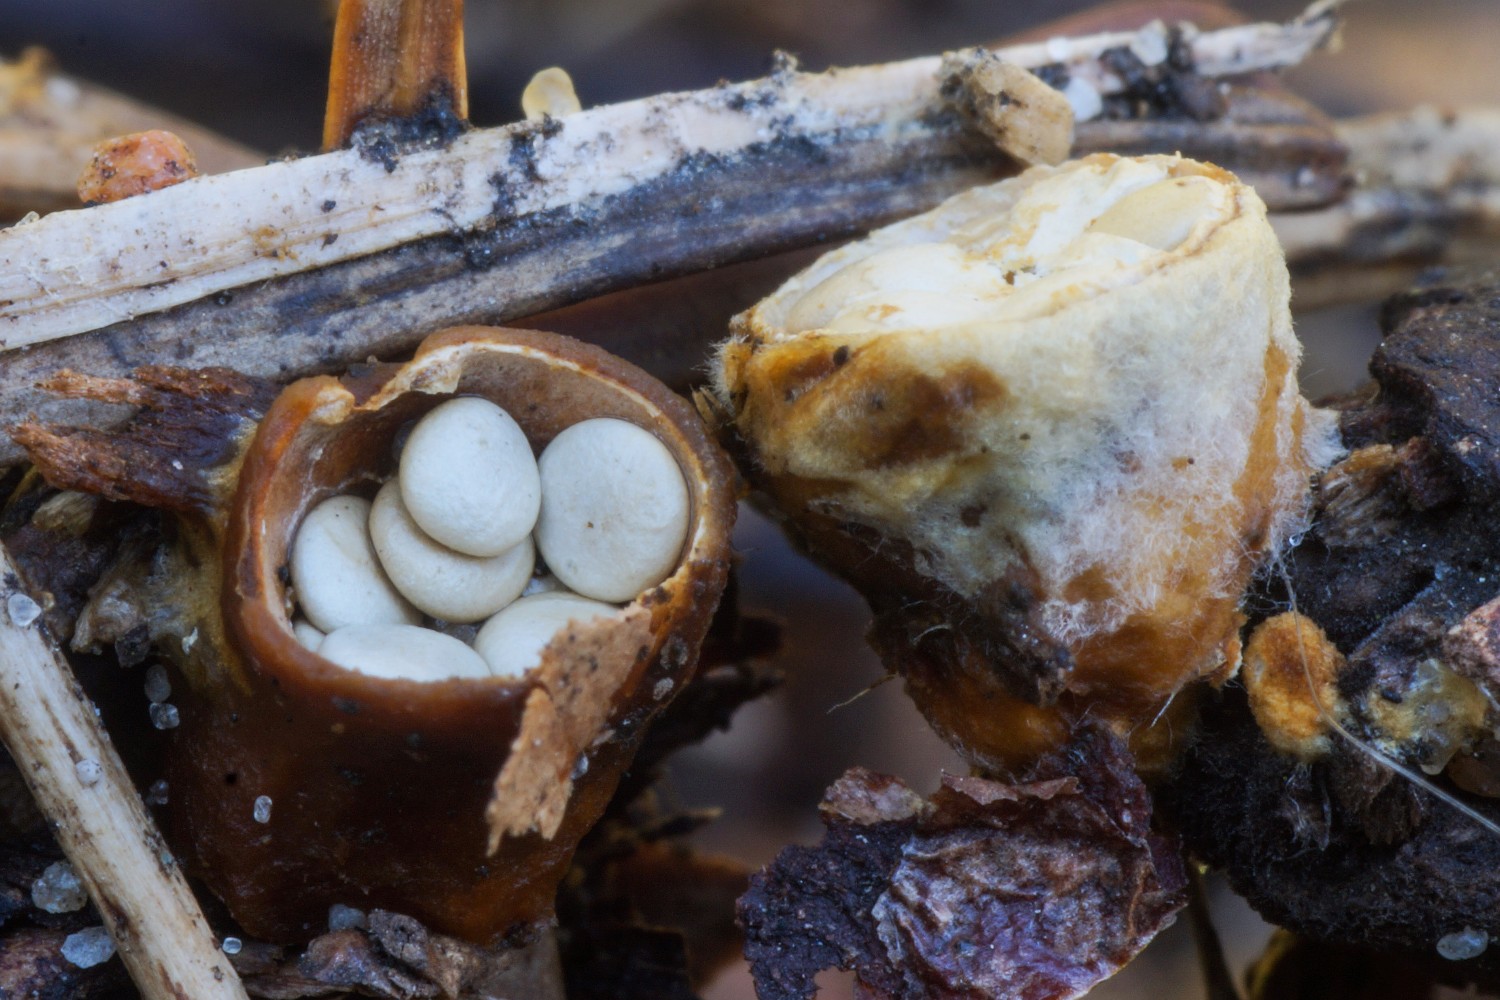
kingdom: Fungi
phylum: Basidiomycota
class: Agaricomycetes
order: Agaricales
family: Nidulariaceae
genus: Crucibulum
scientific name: Crucibulum crucibuliforme
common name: krukkesvamp
